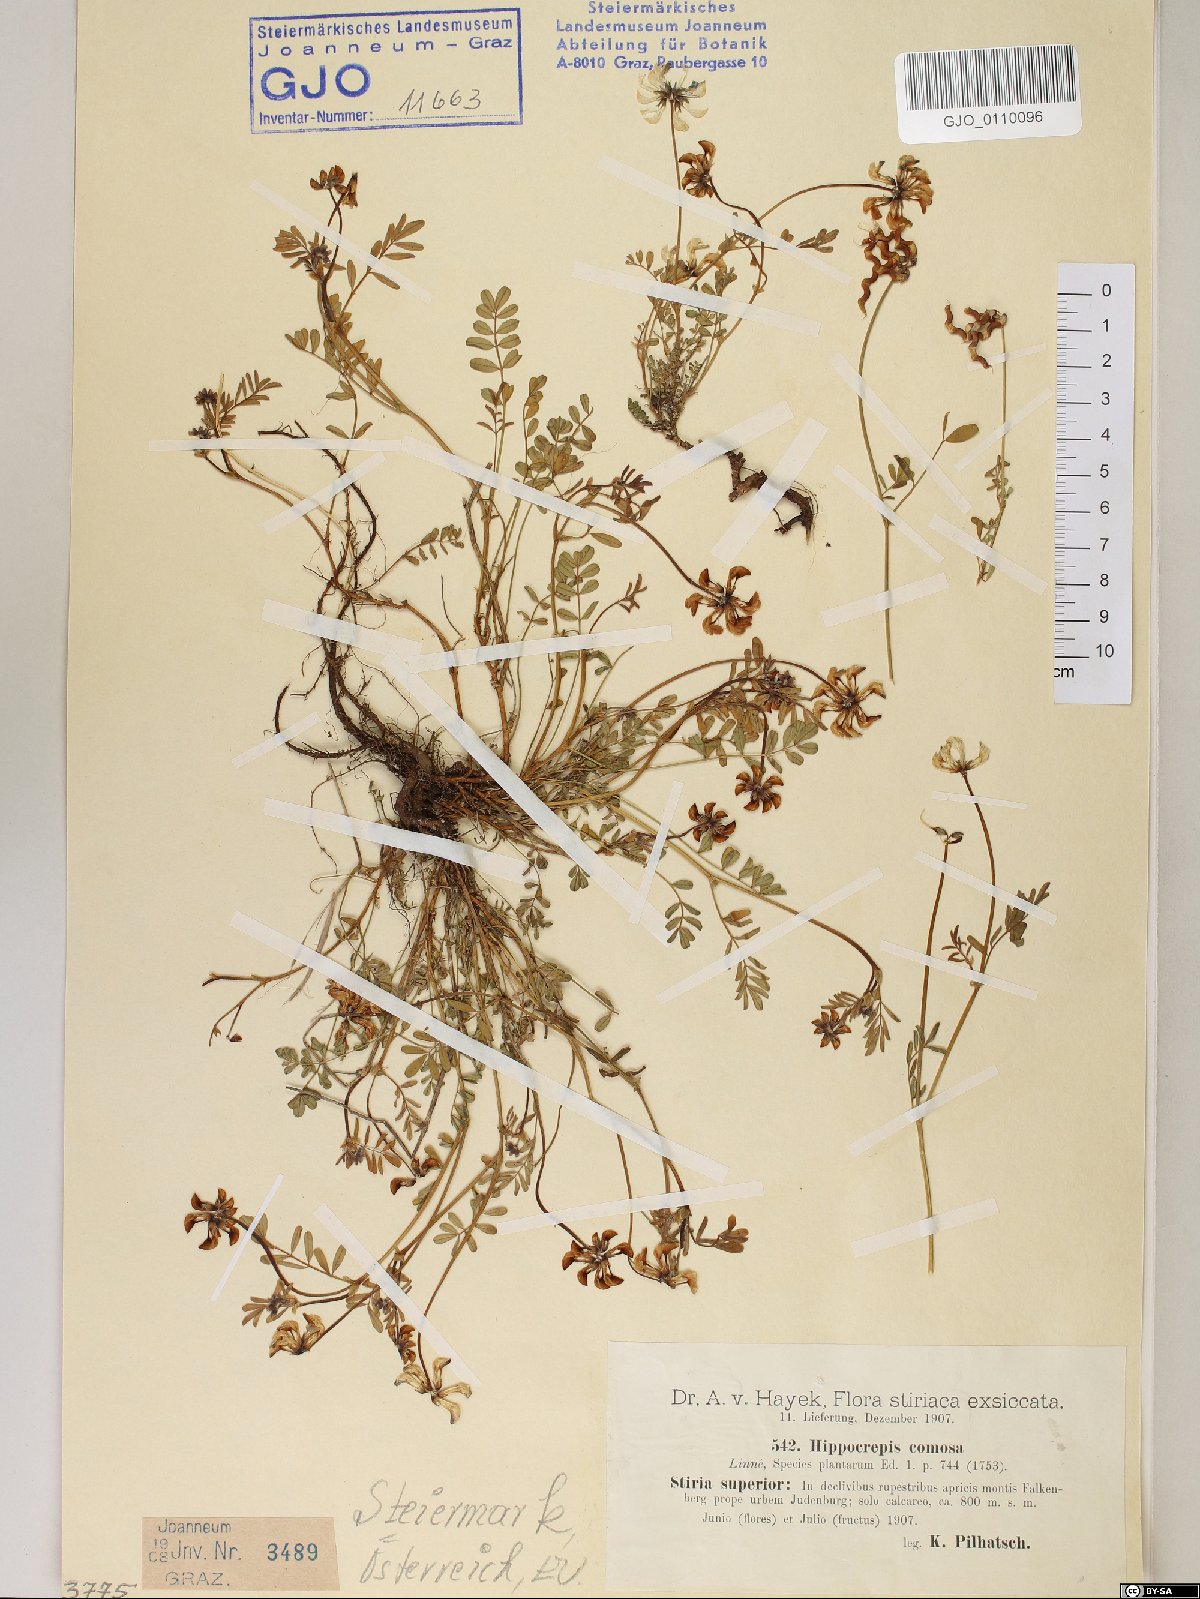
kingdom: Plantae
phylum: Tracheophyta
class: Magnoliopsida
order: Fabales
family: Fabaceae
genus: Hippocrepis
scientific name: Hippocrepis comosa
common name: Horseshoe vetch
